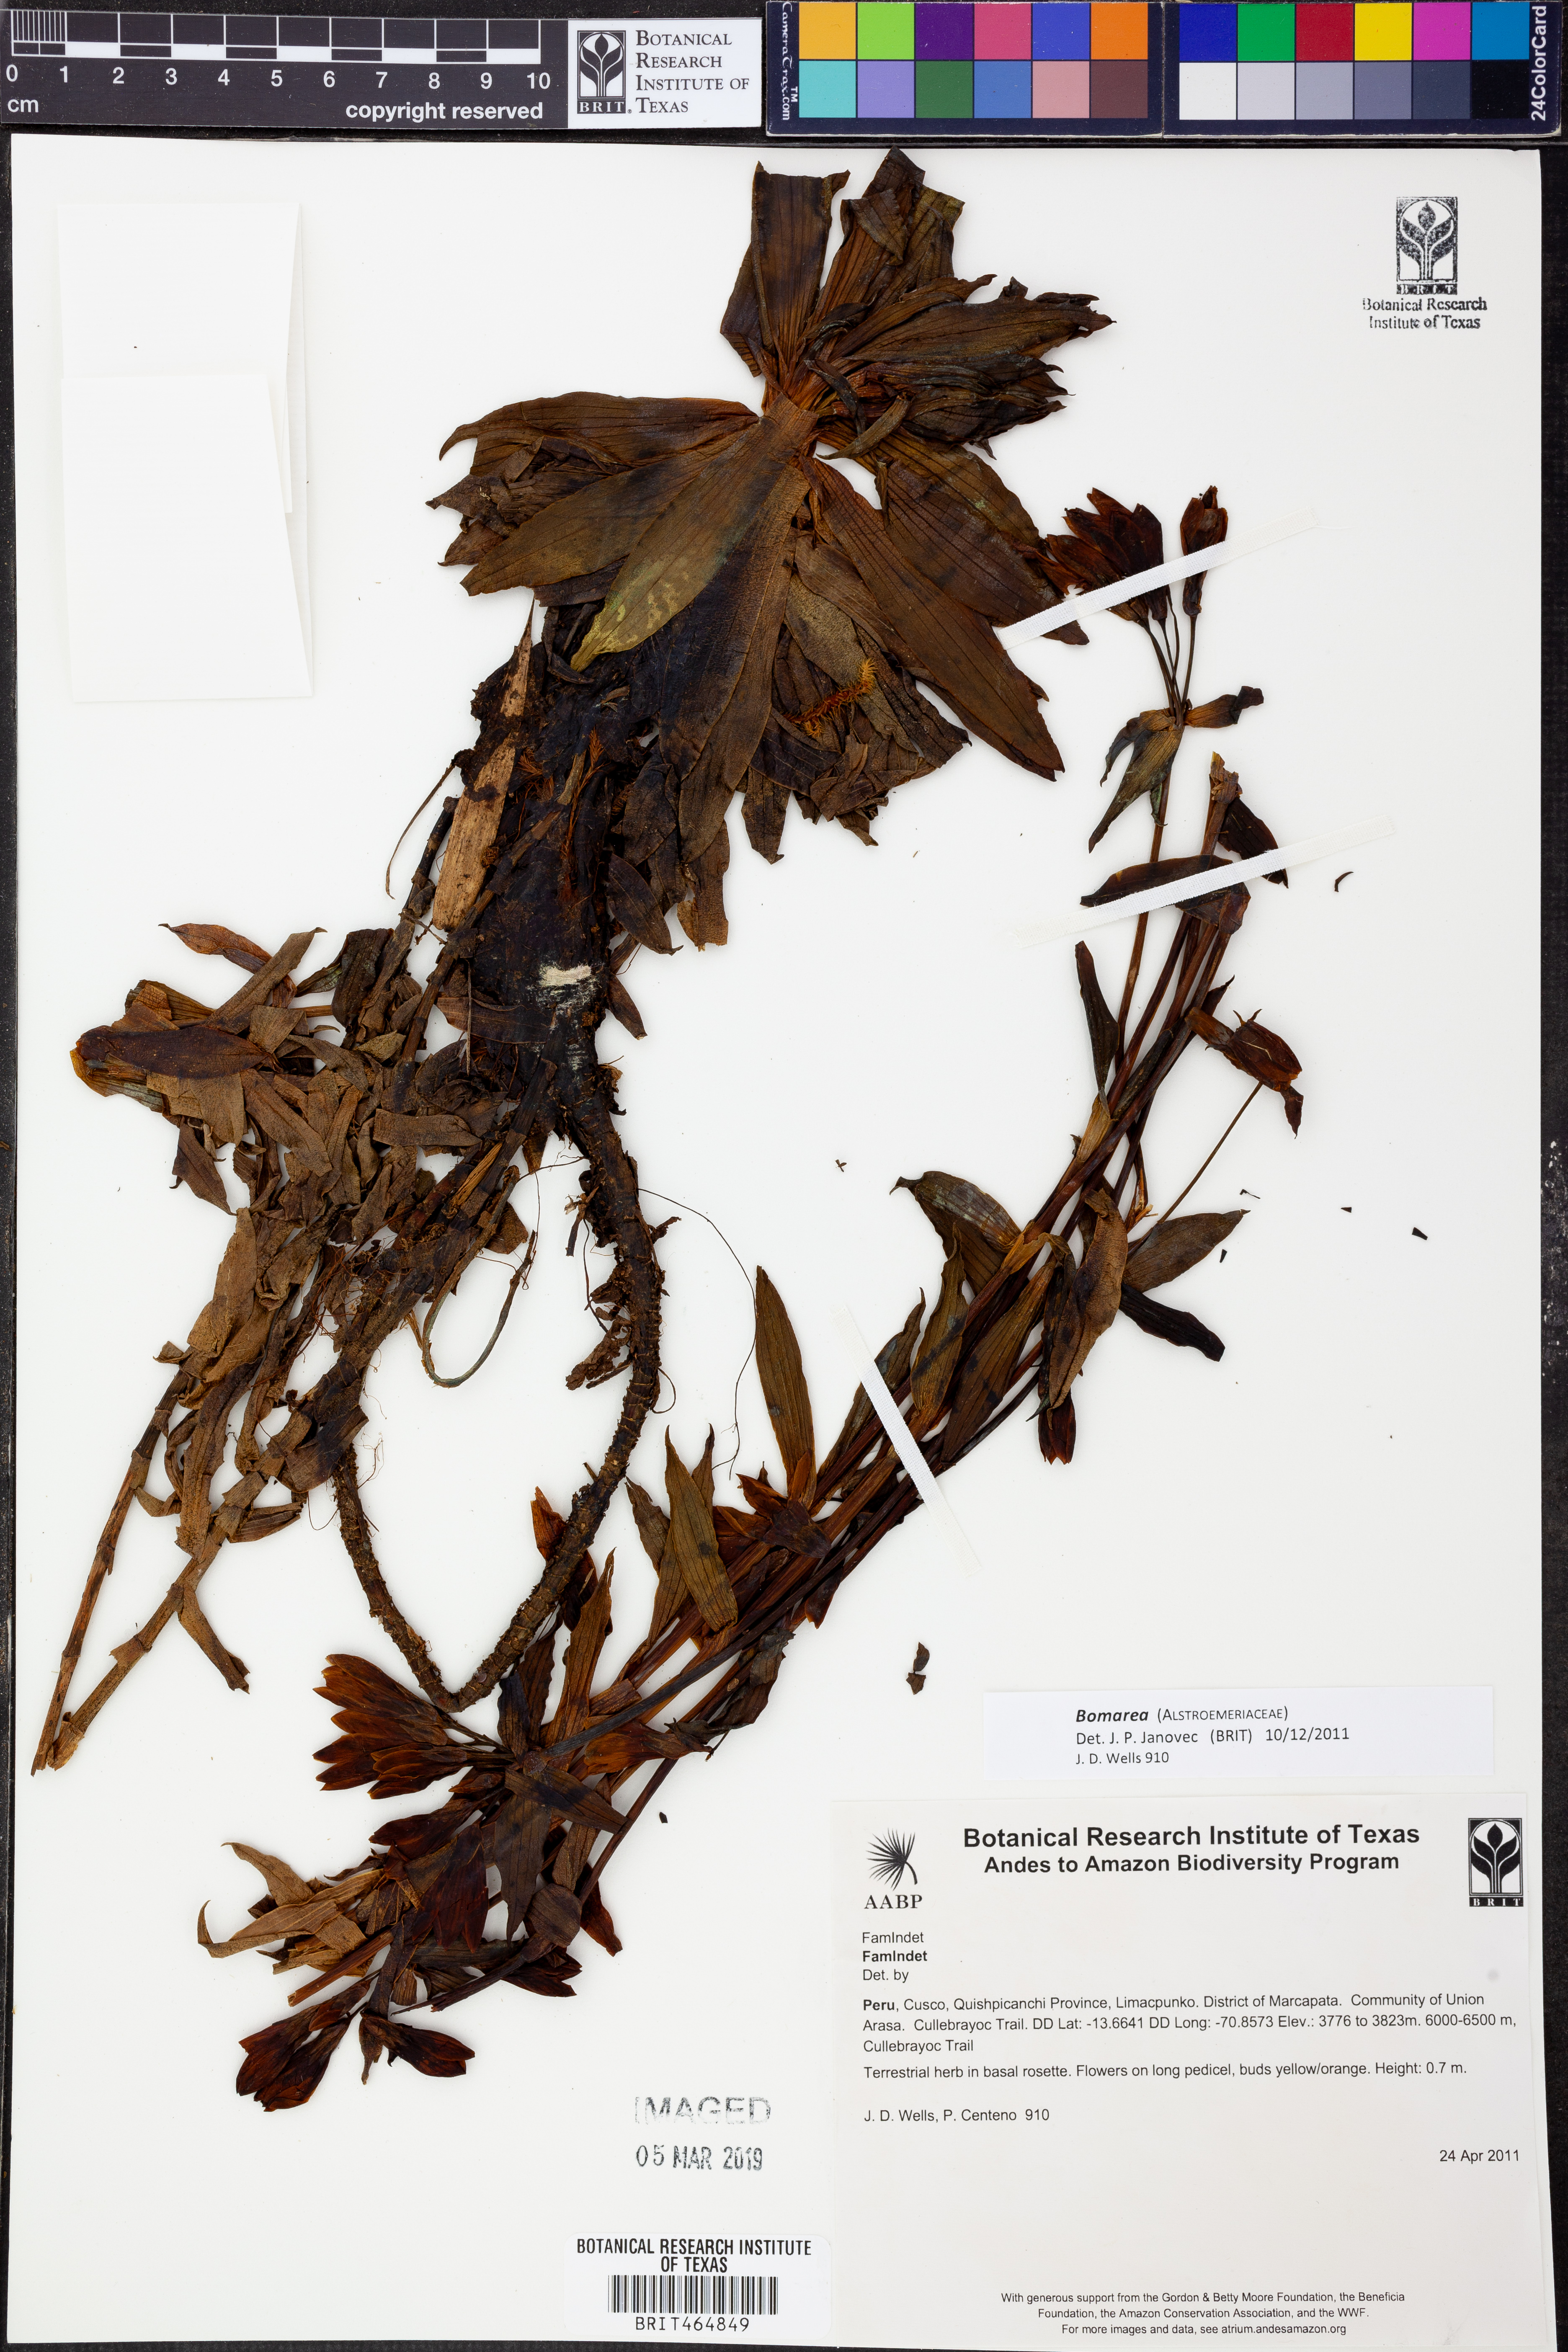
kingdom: Plantae
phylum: Tracheophyta
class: Liliopsida
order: Liliales
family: Alstroemeriaceae
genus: Bomarea
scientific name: Bomarea
